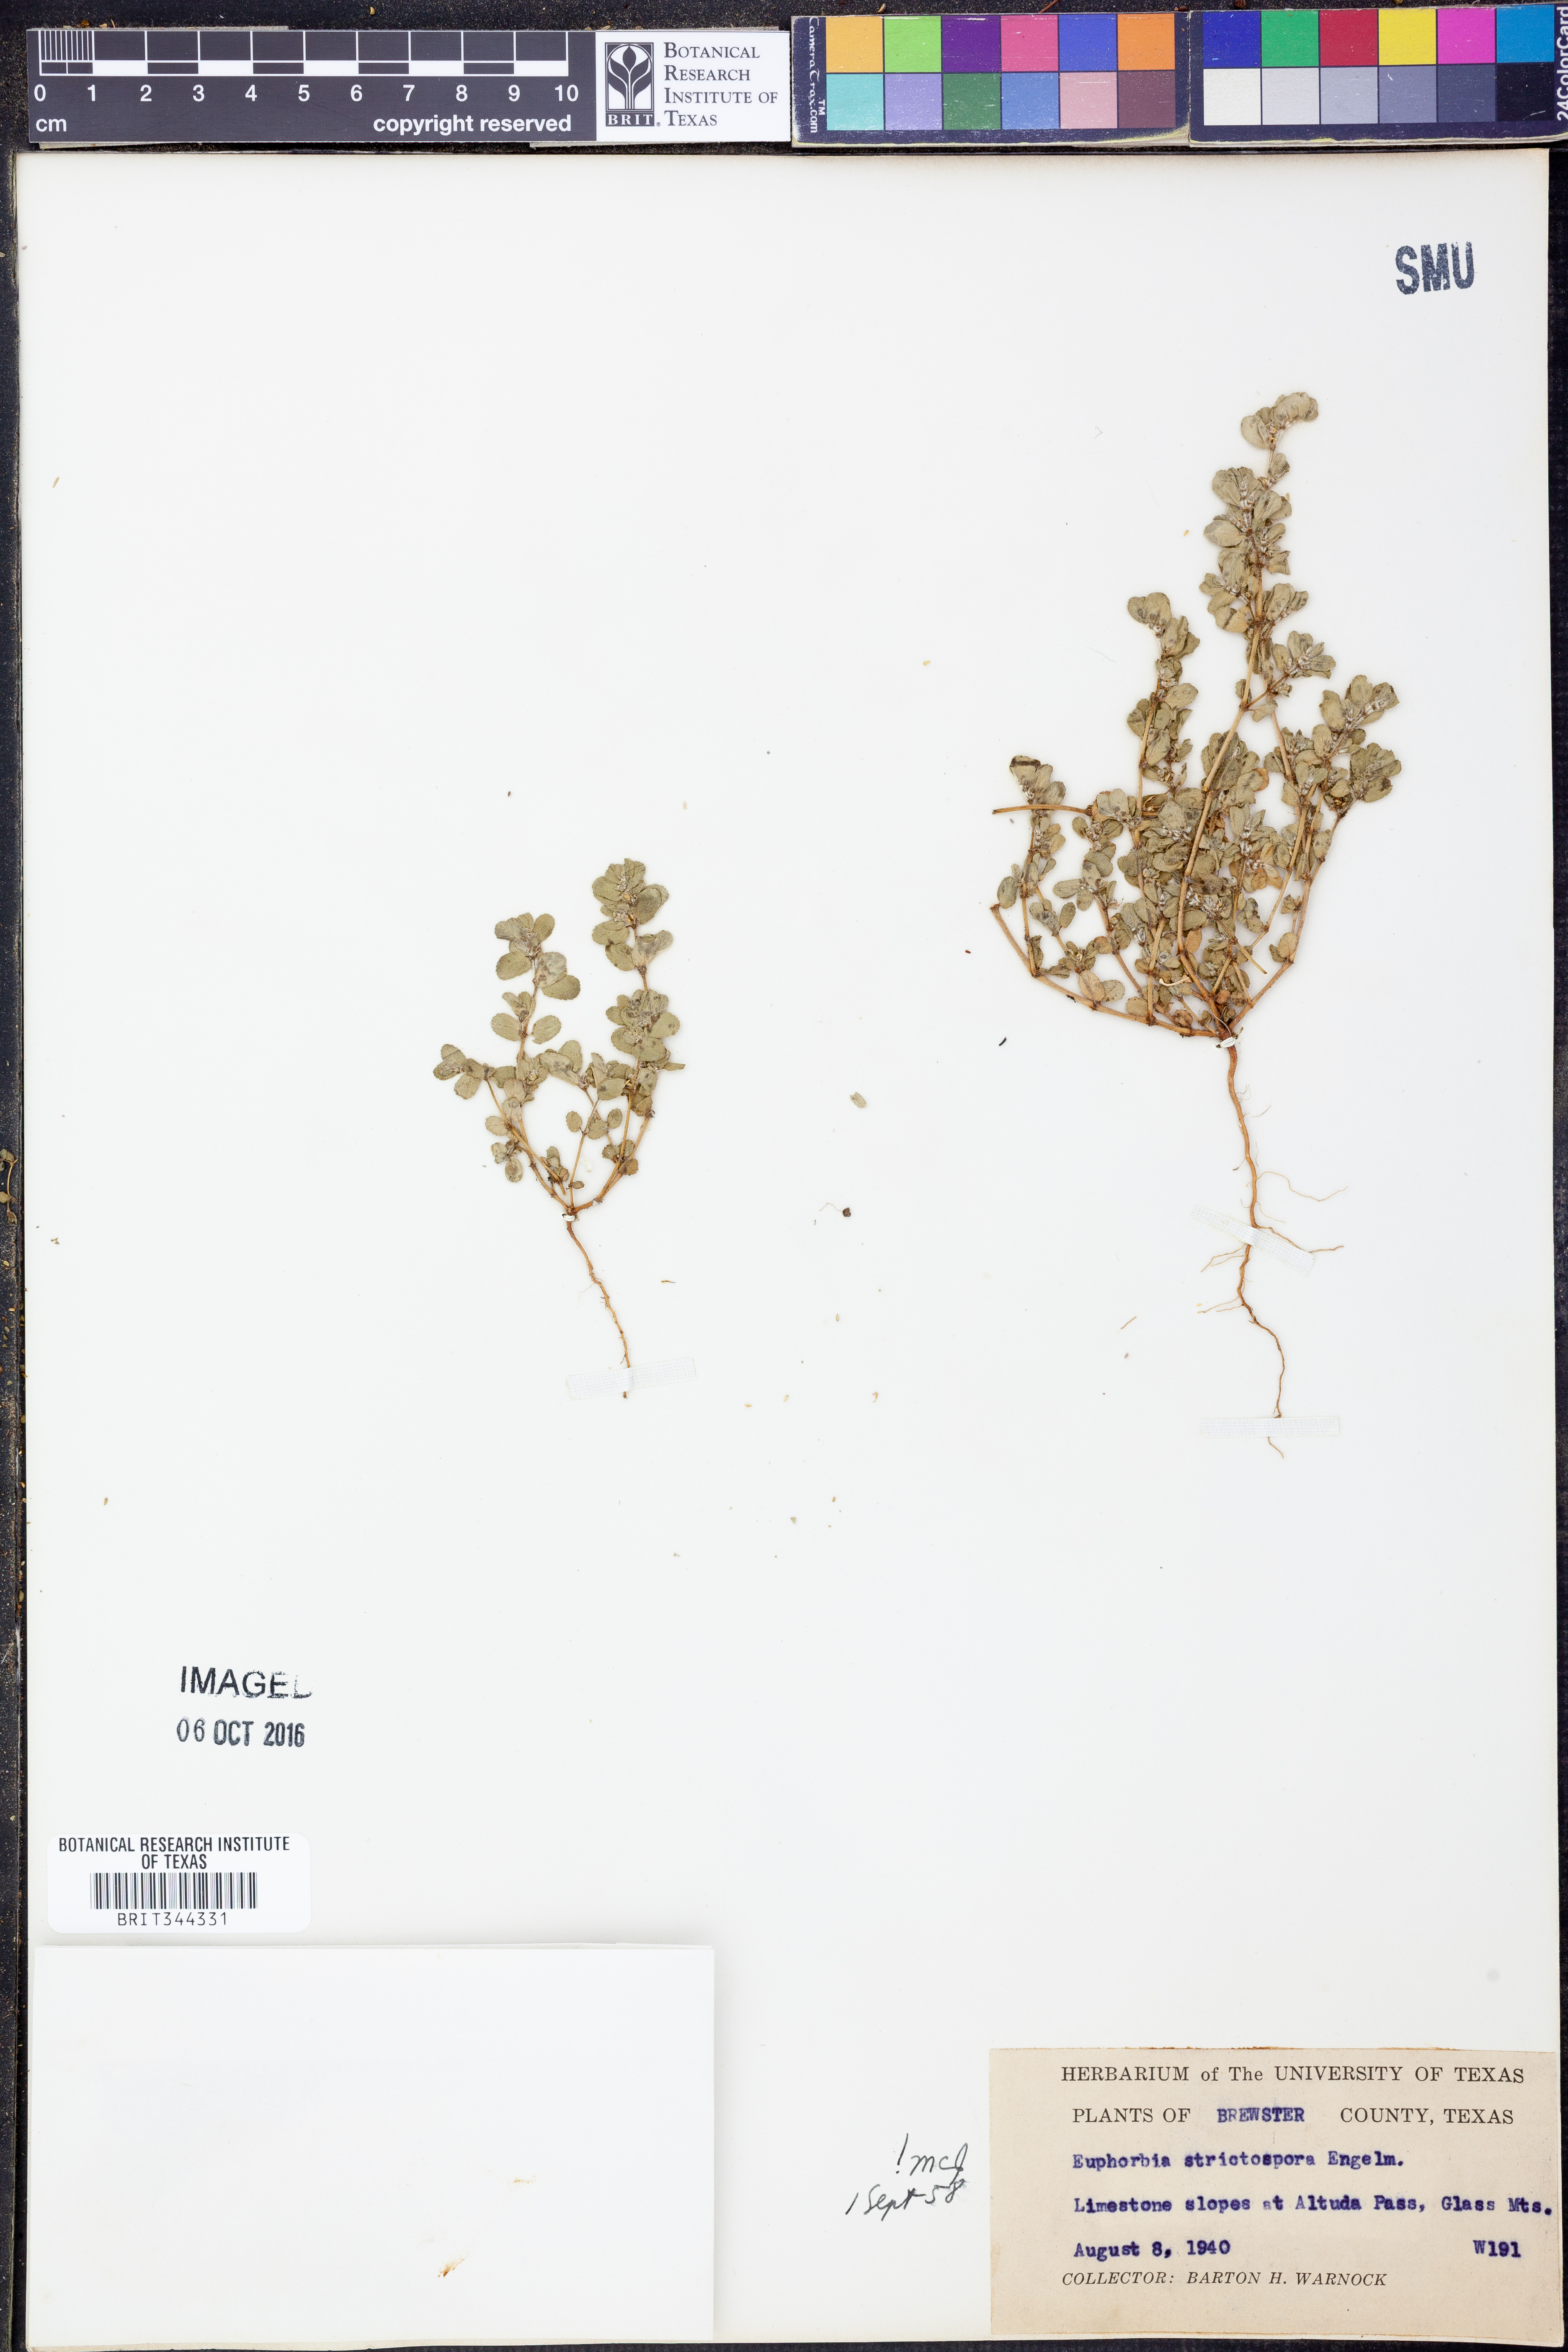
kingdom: Plantae
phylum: Tracheophyta
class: Magnoliopsida
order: Malpighiales
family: Euphorbiaceae
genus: Euphorbia
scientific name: Euphorbia stictospora
